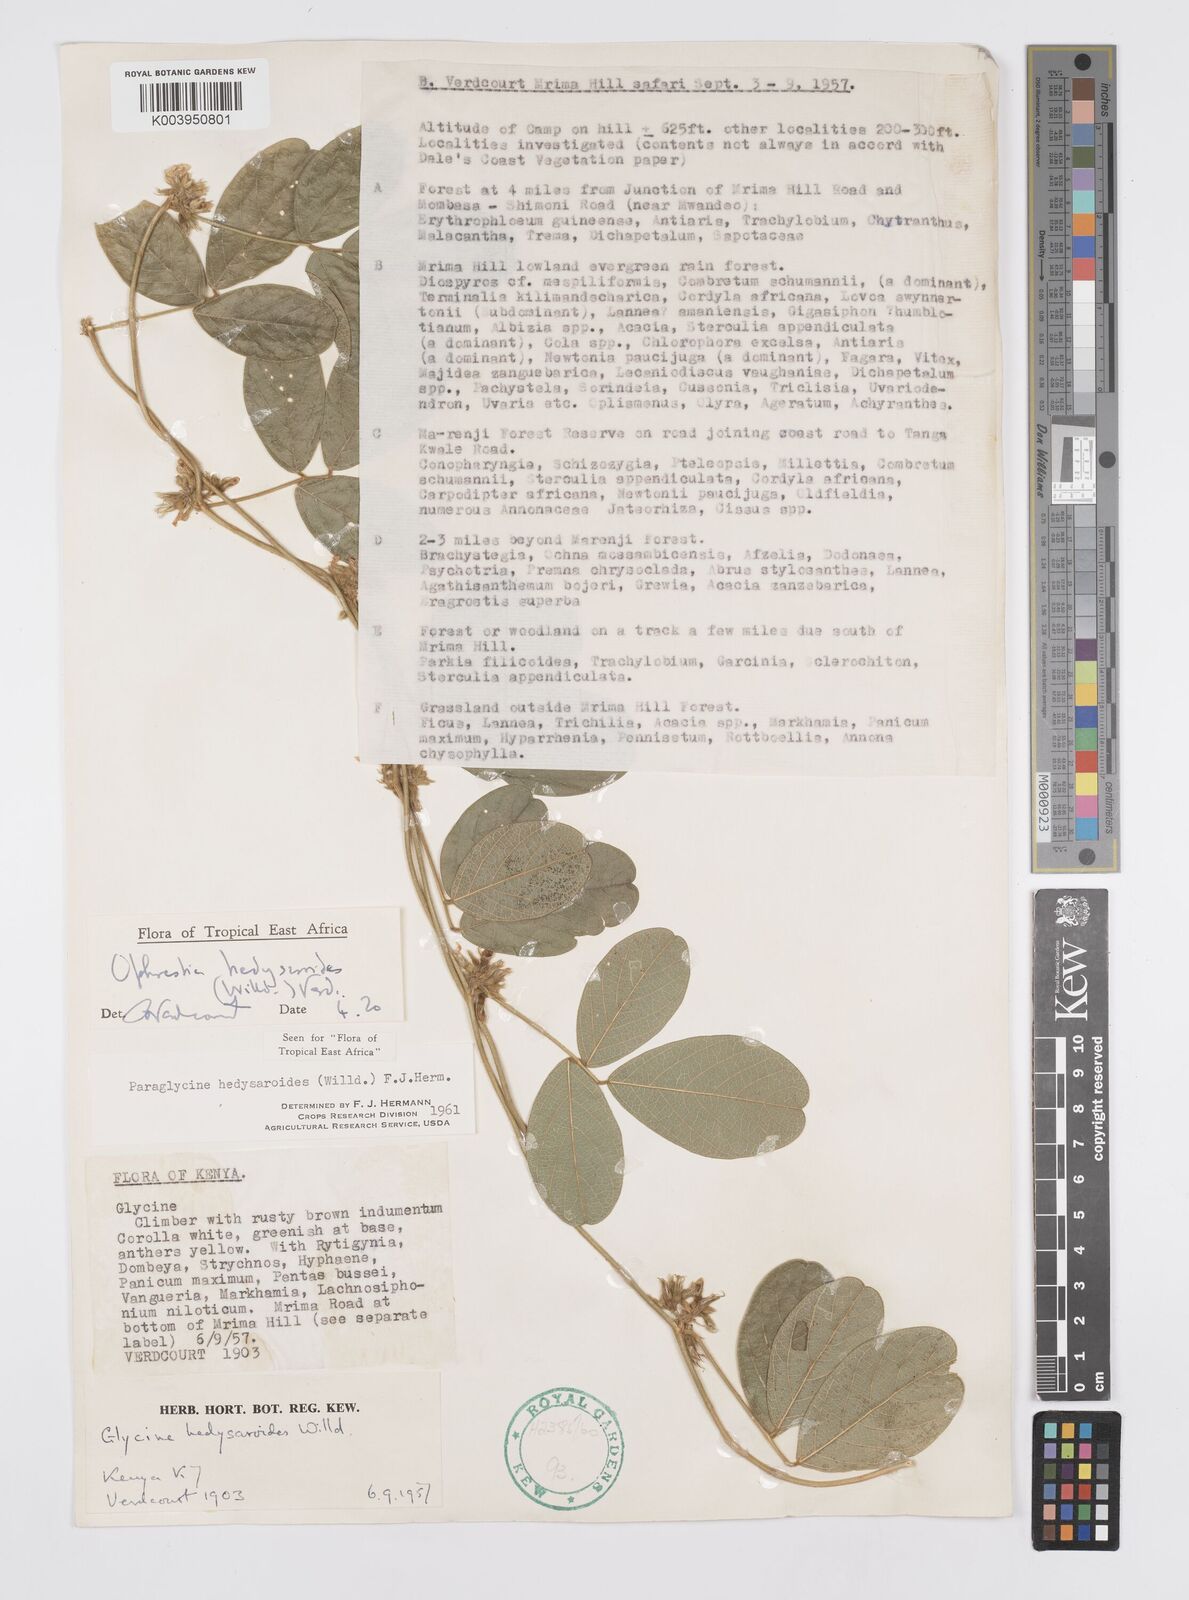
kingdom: Plantae
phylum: Tracheophyta
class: Magnoliopsida
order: Fabales
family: Fabaceae
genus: Ophrestia
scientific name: Ophrestia hedysaroides
